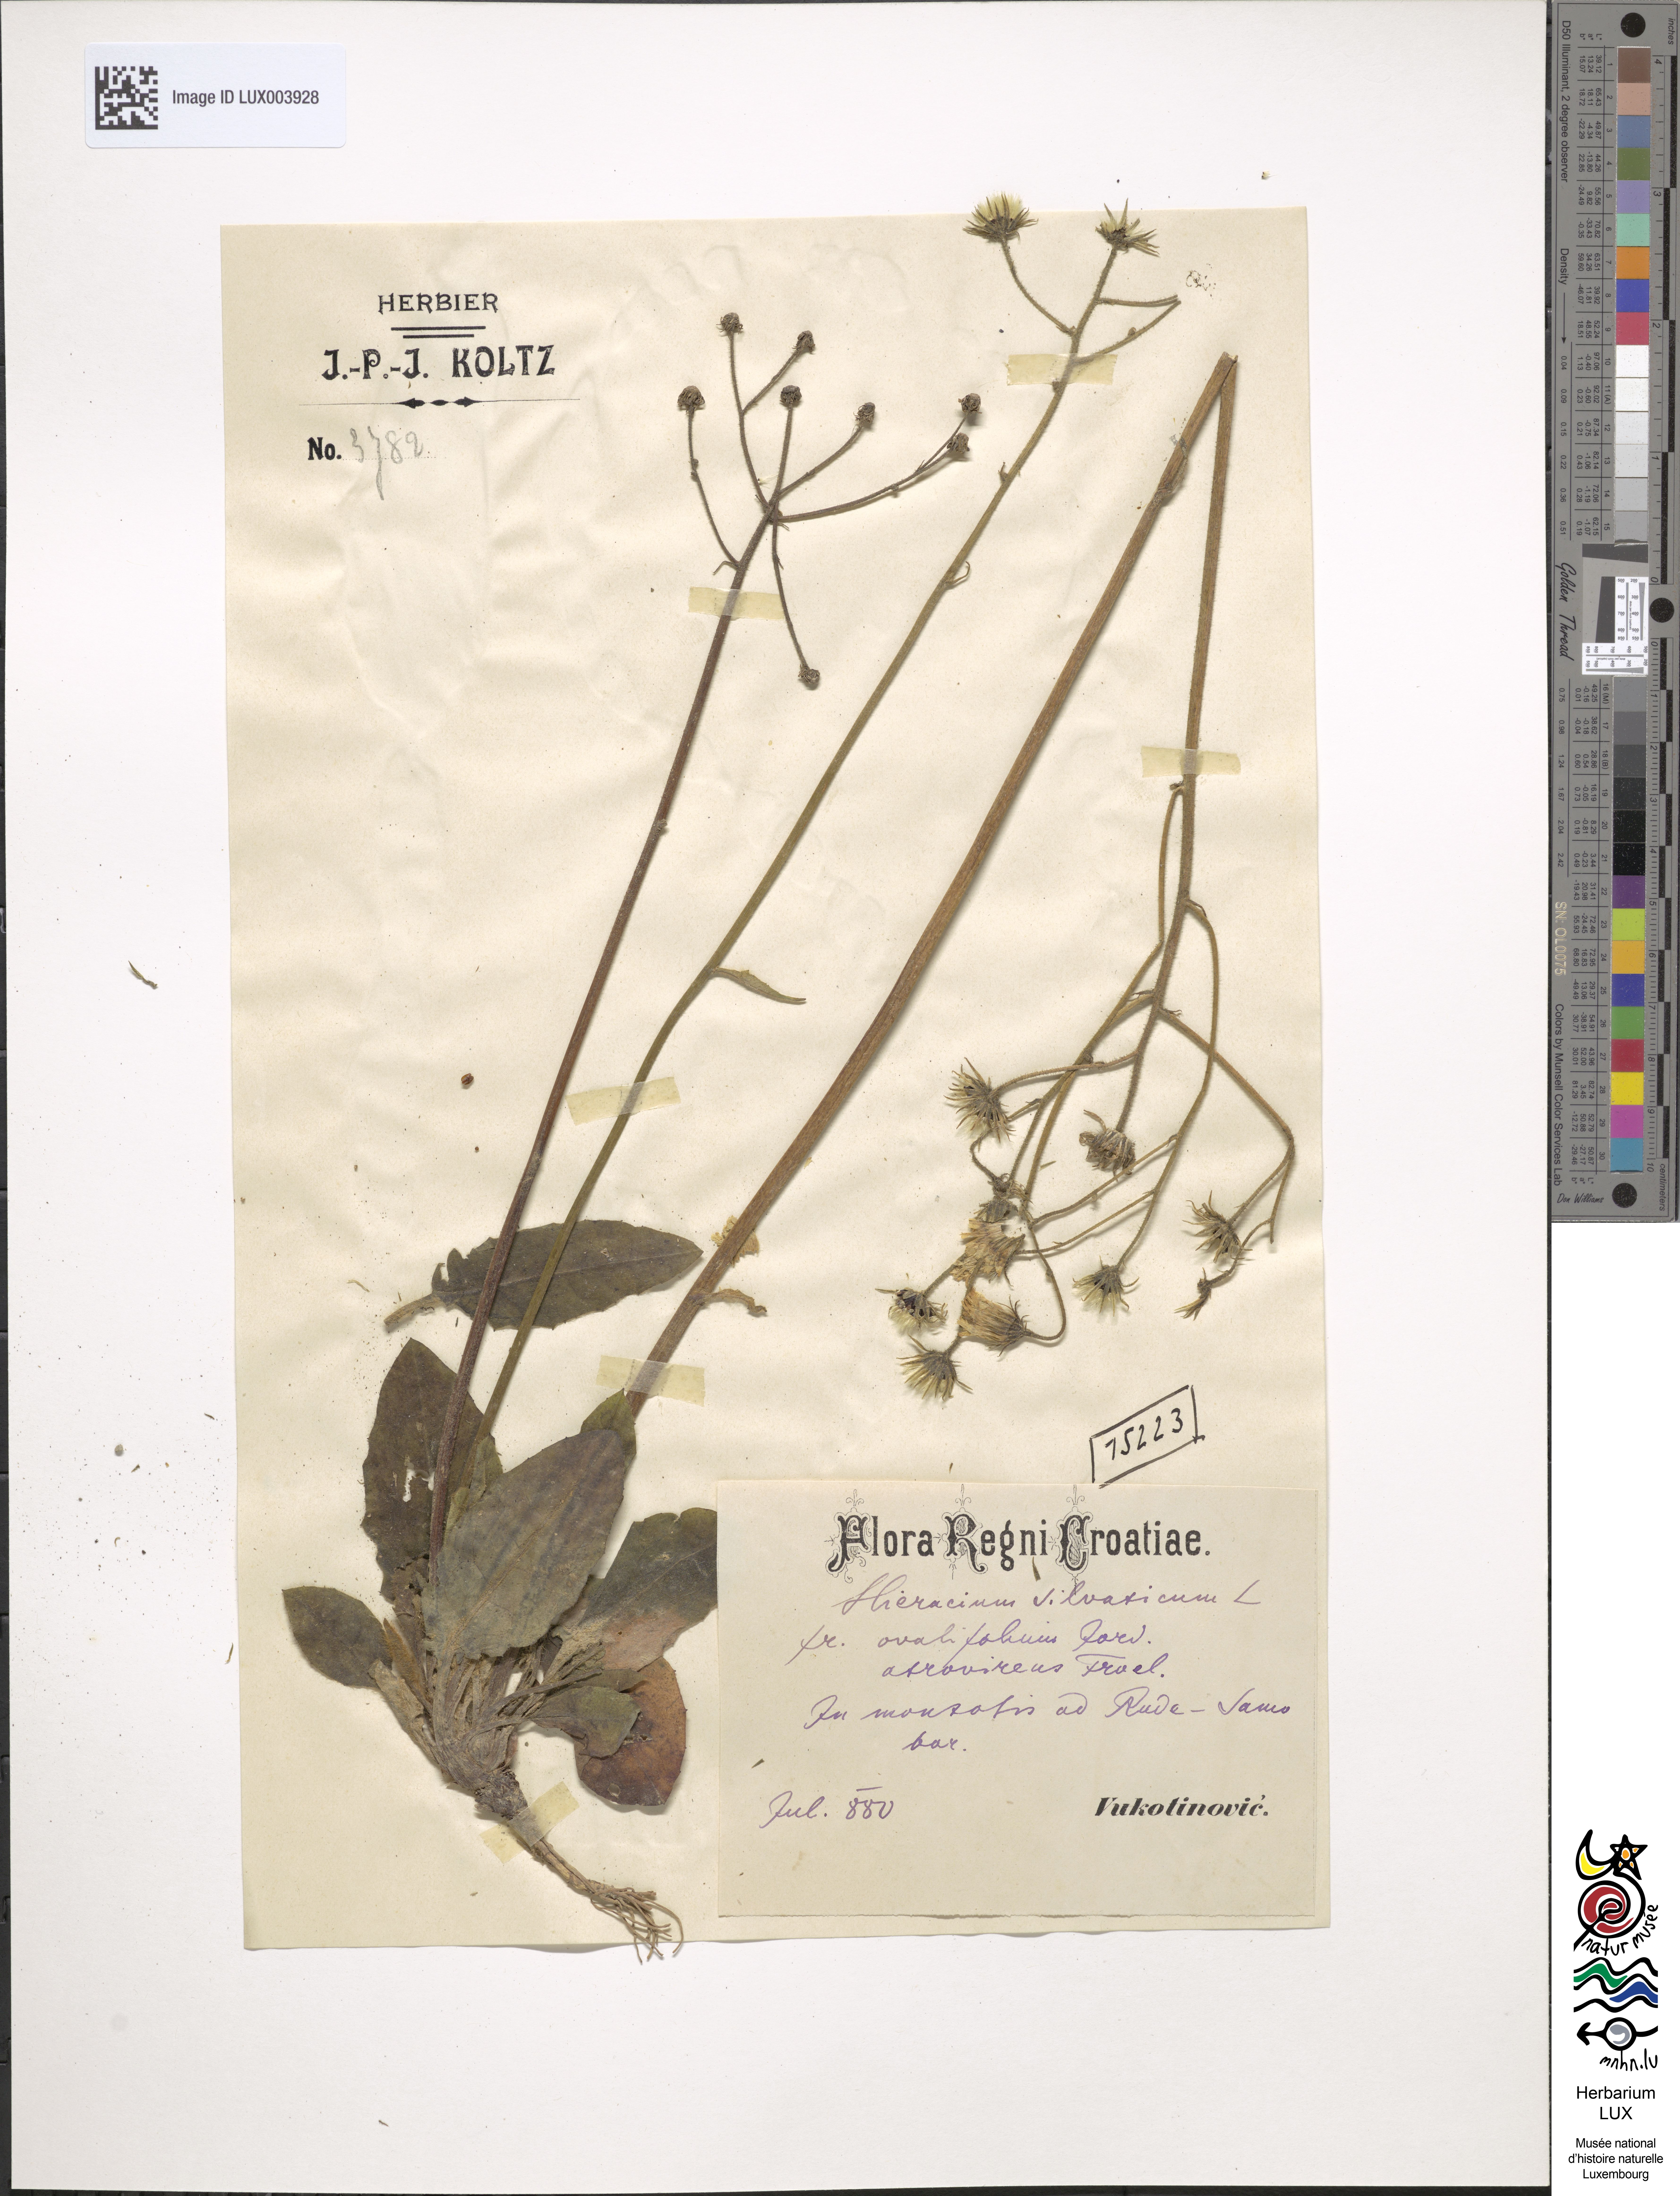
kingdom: Plantae
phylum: Tracheophyta
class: Magnoliopsida
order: Asterales
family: Asteraceae
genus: Hieracium
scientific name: Hieracium murorum
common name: Wall hawkweed
